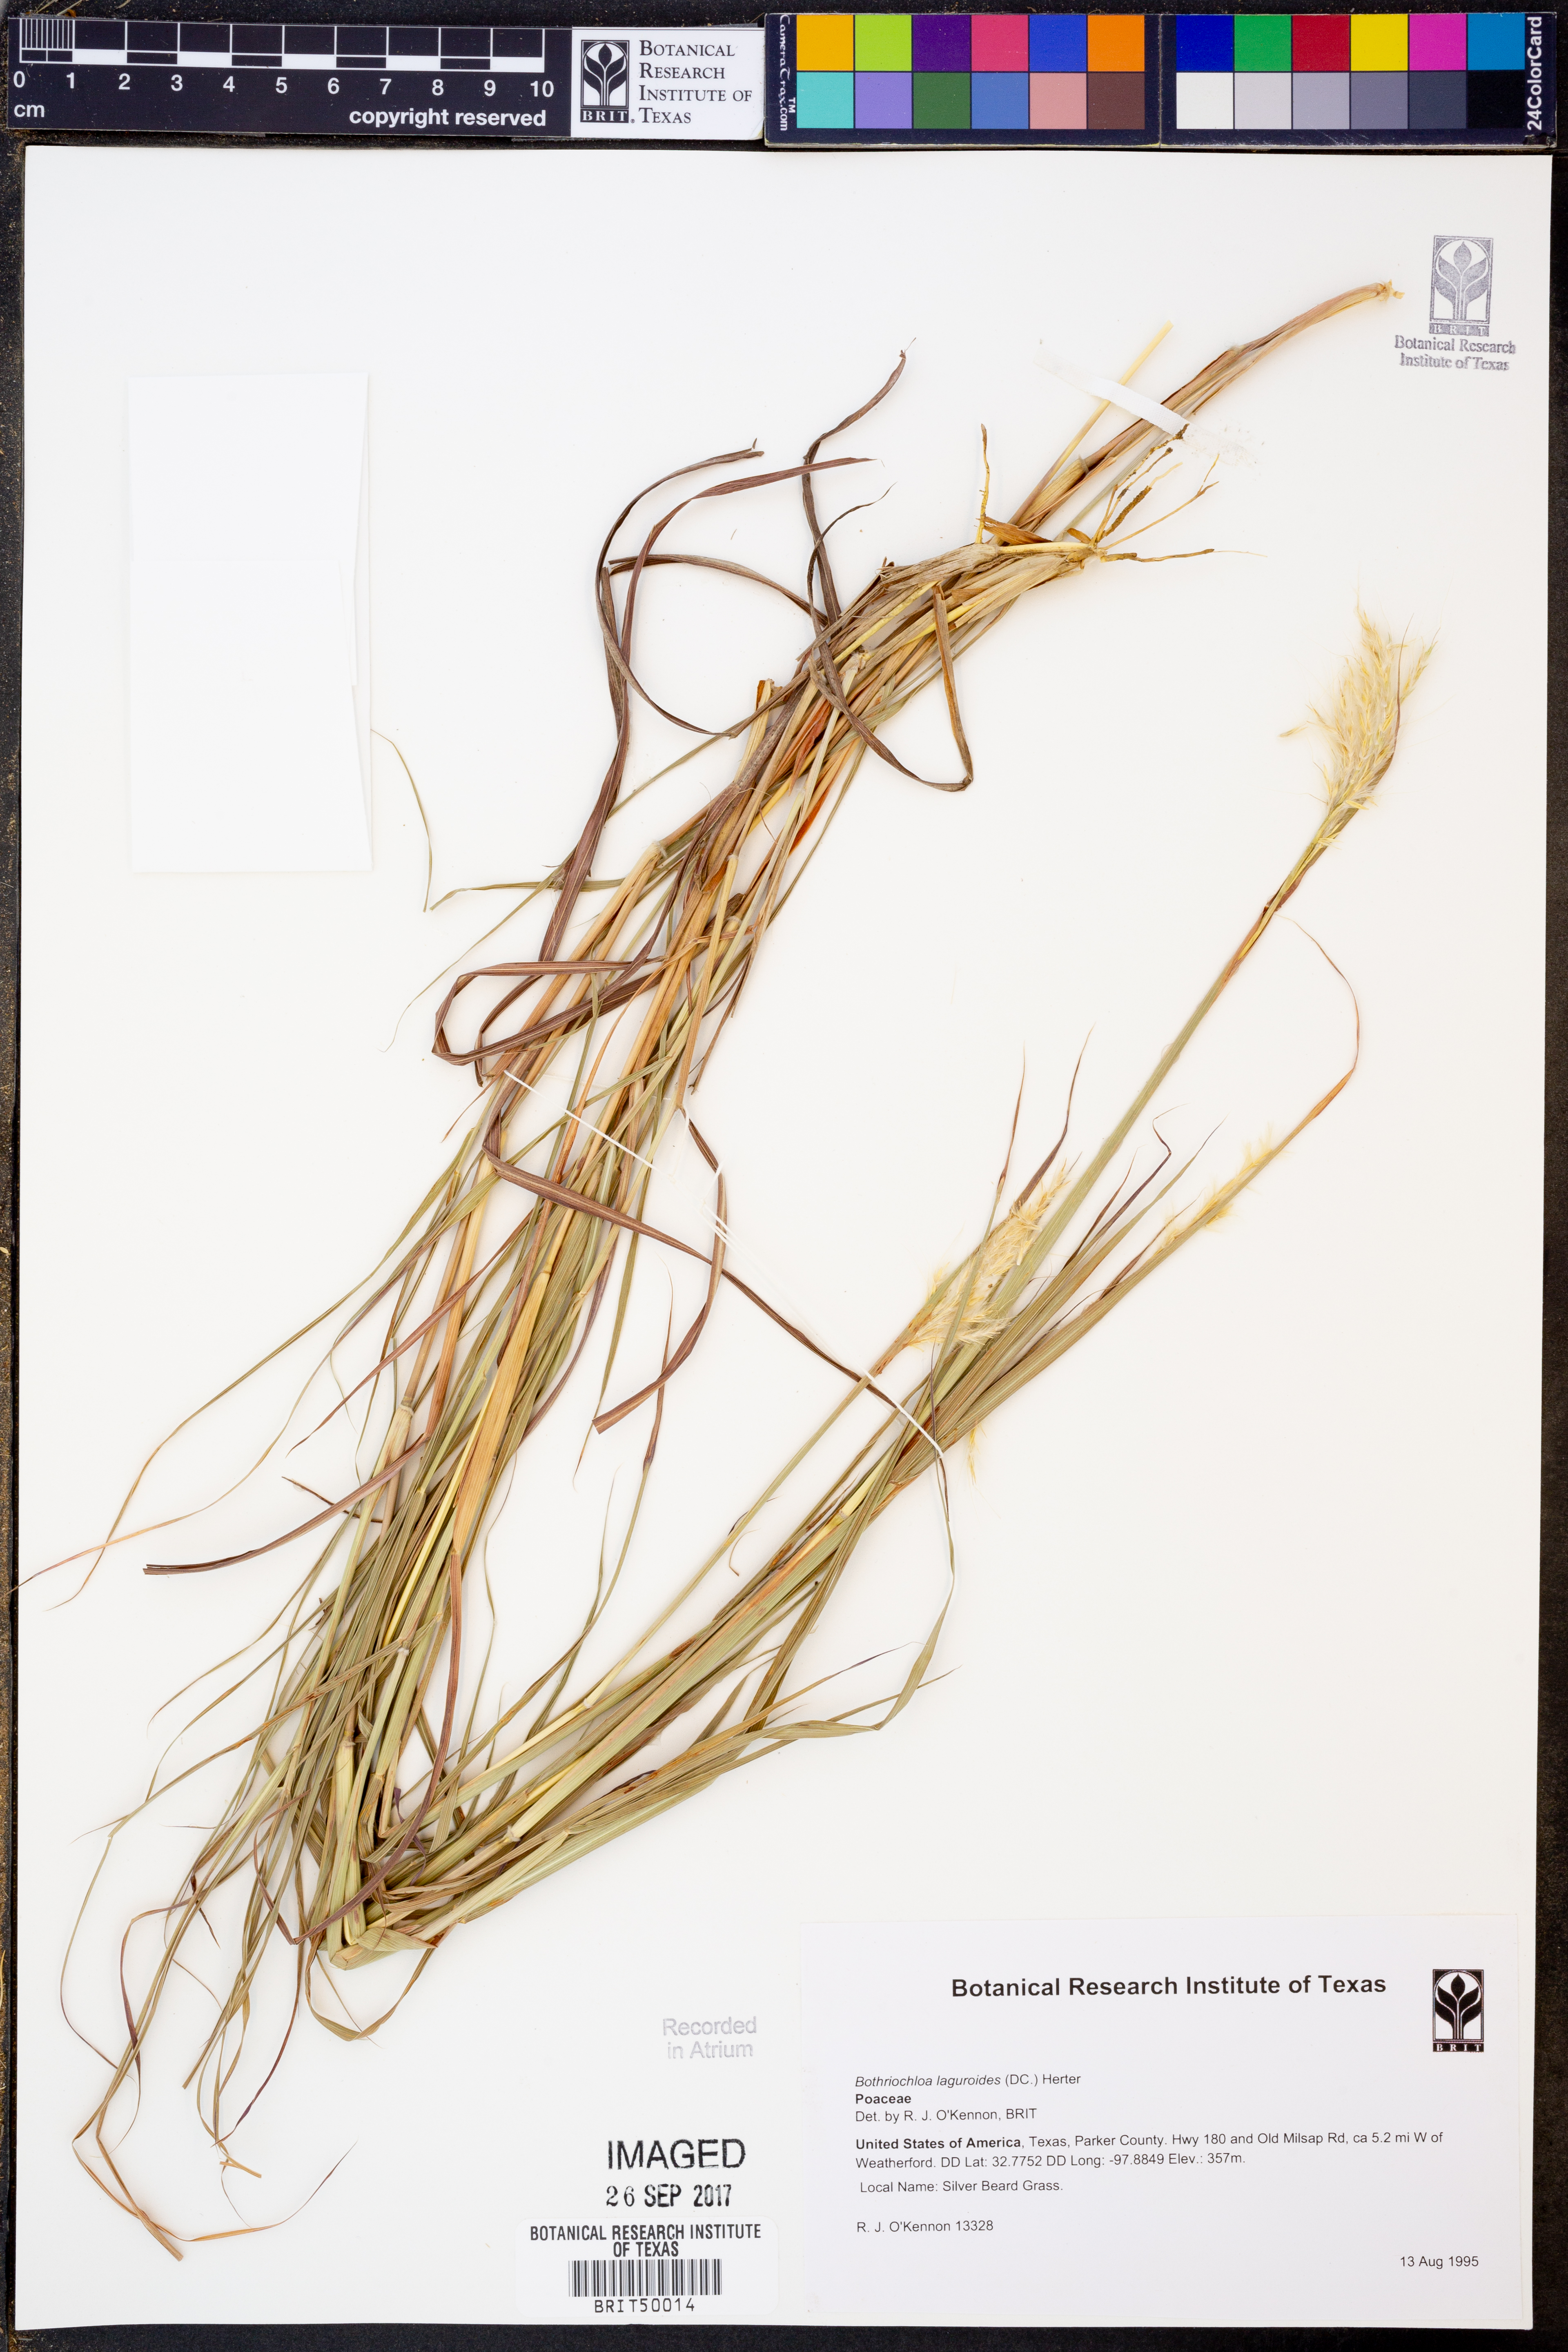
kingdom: Plantae
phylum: Tracheophyta
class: Liliopsida
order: Poales
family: Poaceae
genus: Bothriochloa
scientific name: Bothriochloa laguroides
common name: Silver bluestem
